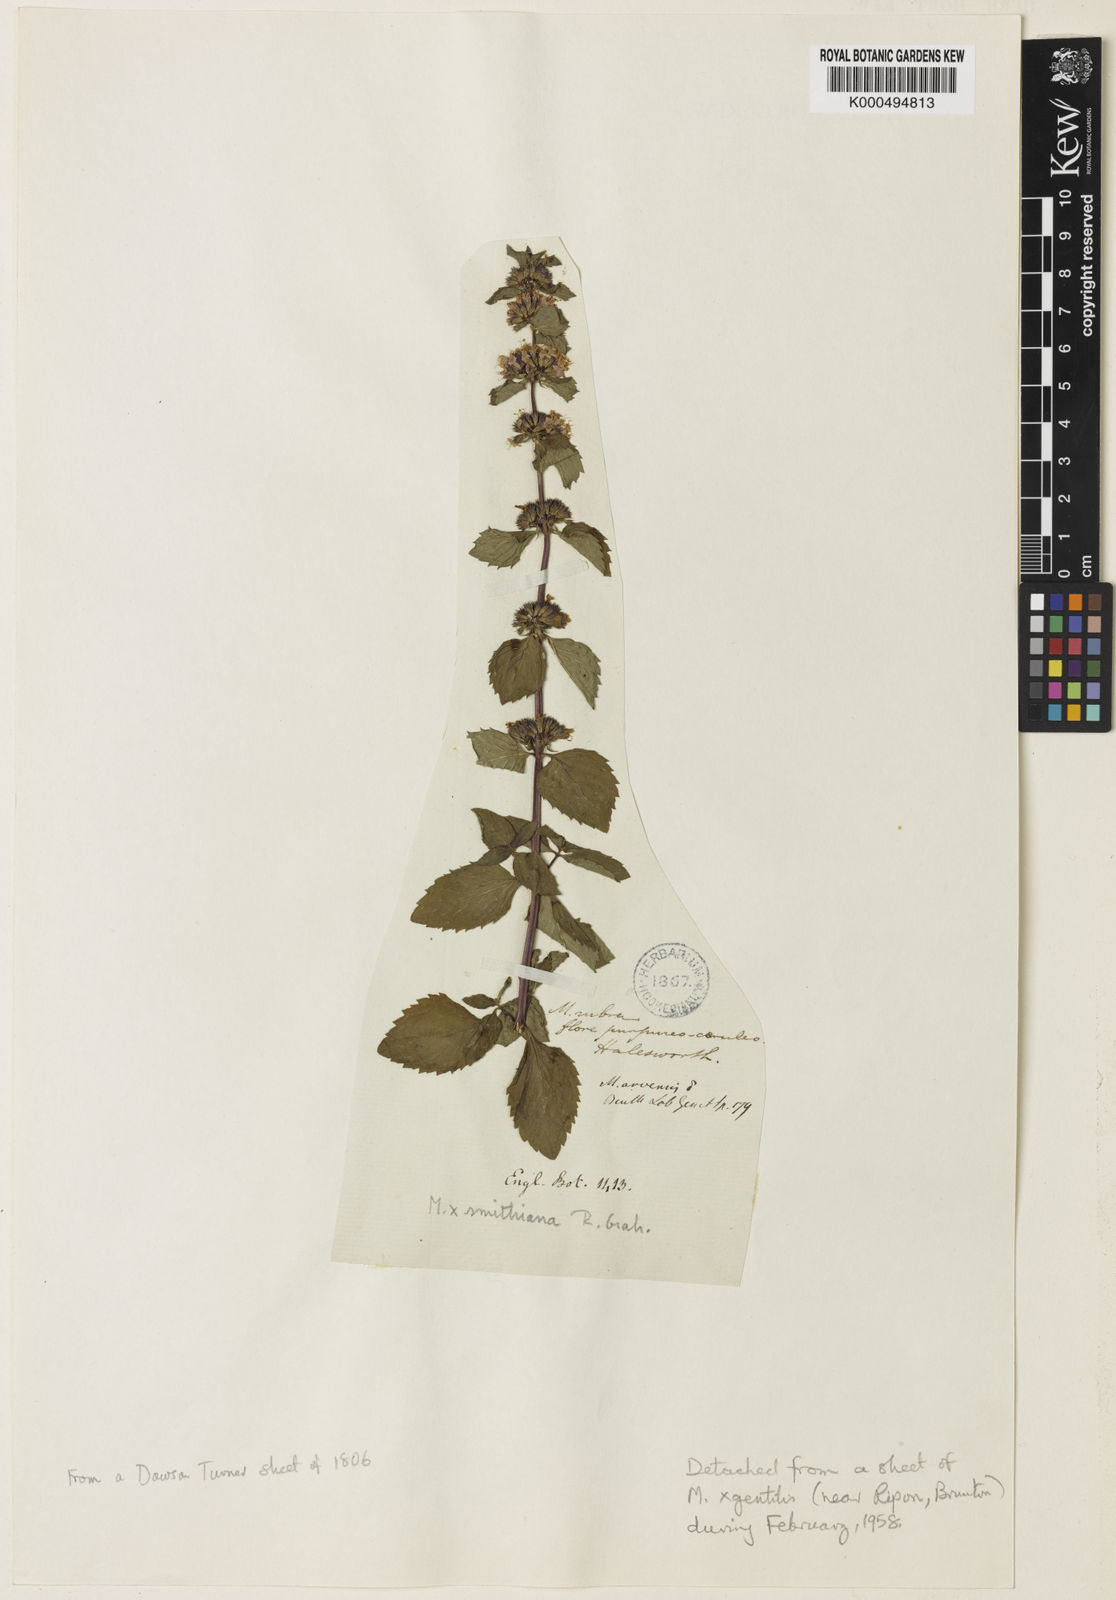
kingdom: Plantae
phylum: Tracheophyta
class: Magnoliopsida
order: Lamiales
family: Lamiaceae
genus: Mentha
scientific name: Mentha wirtgeniana
